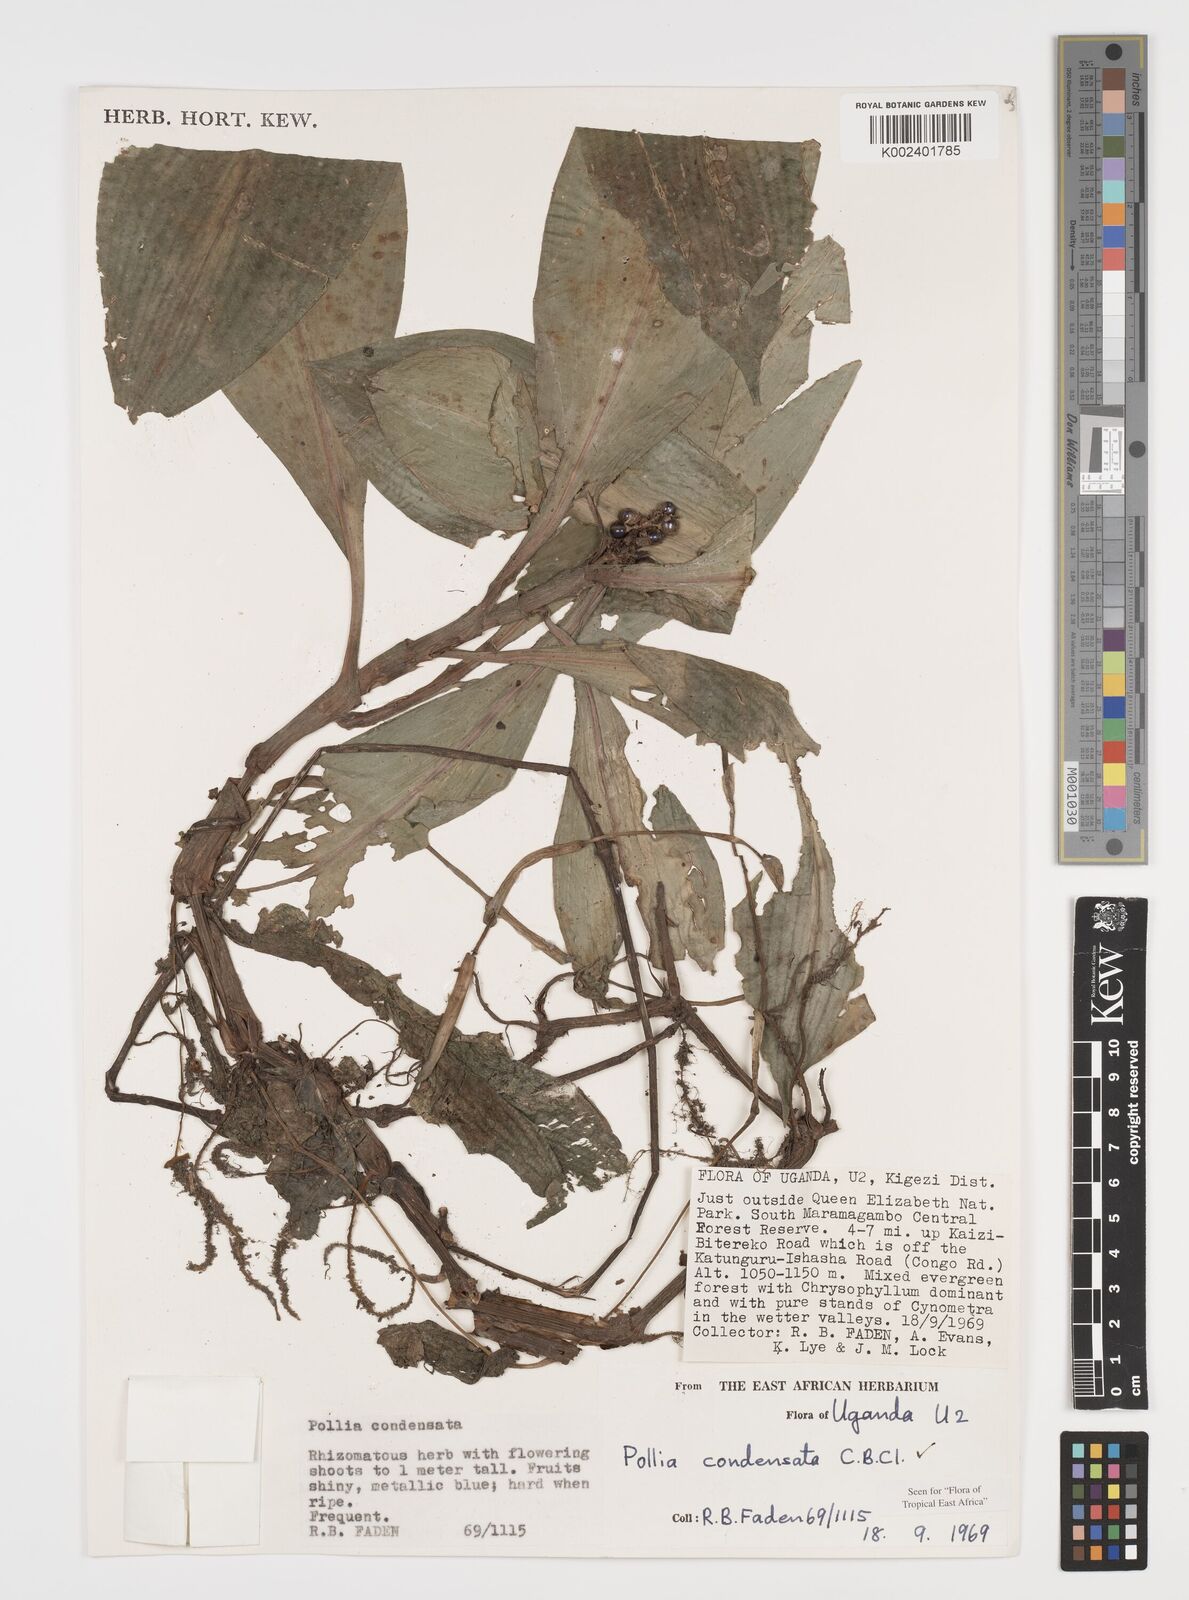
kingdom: Plantae
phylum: Tracheophyta
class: Liliopsida
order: Commelinales
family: Commelinaceae
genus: Pollia
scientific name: Pollia condensata
